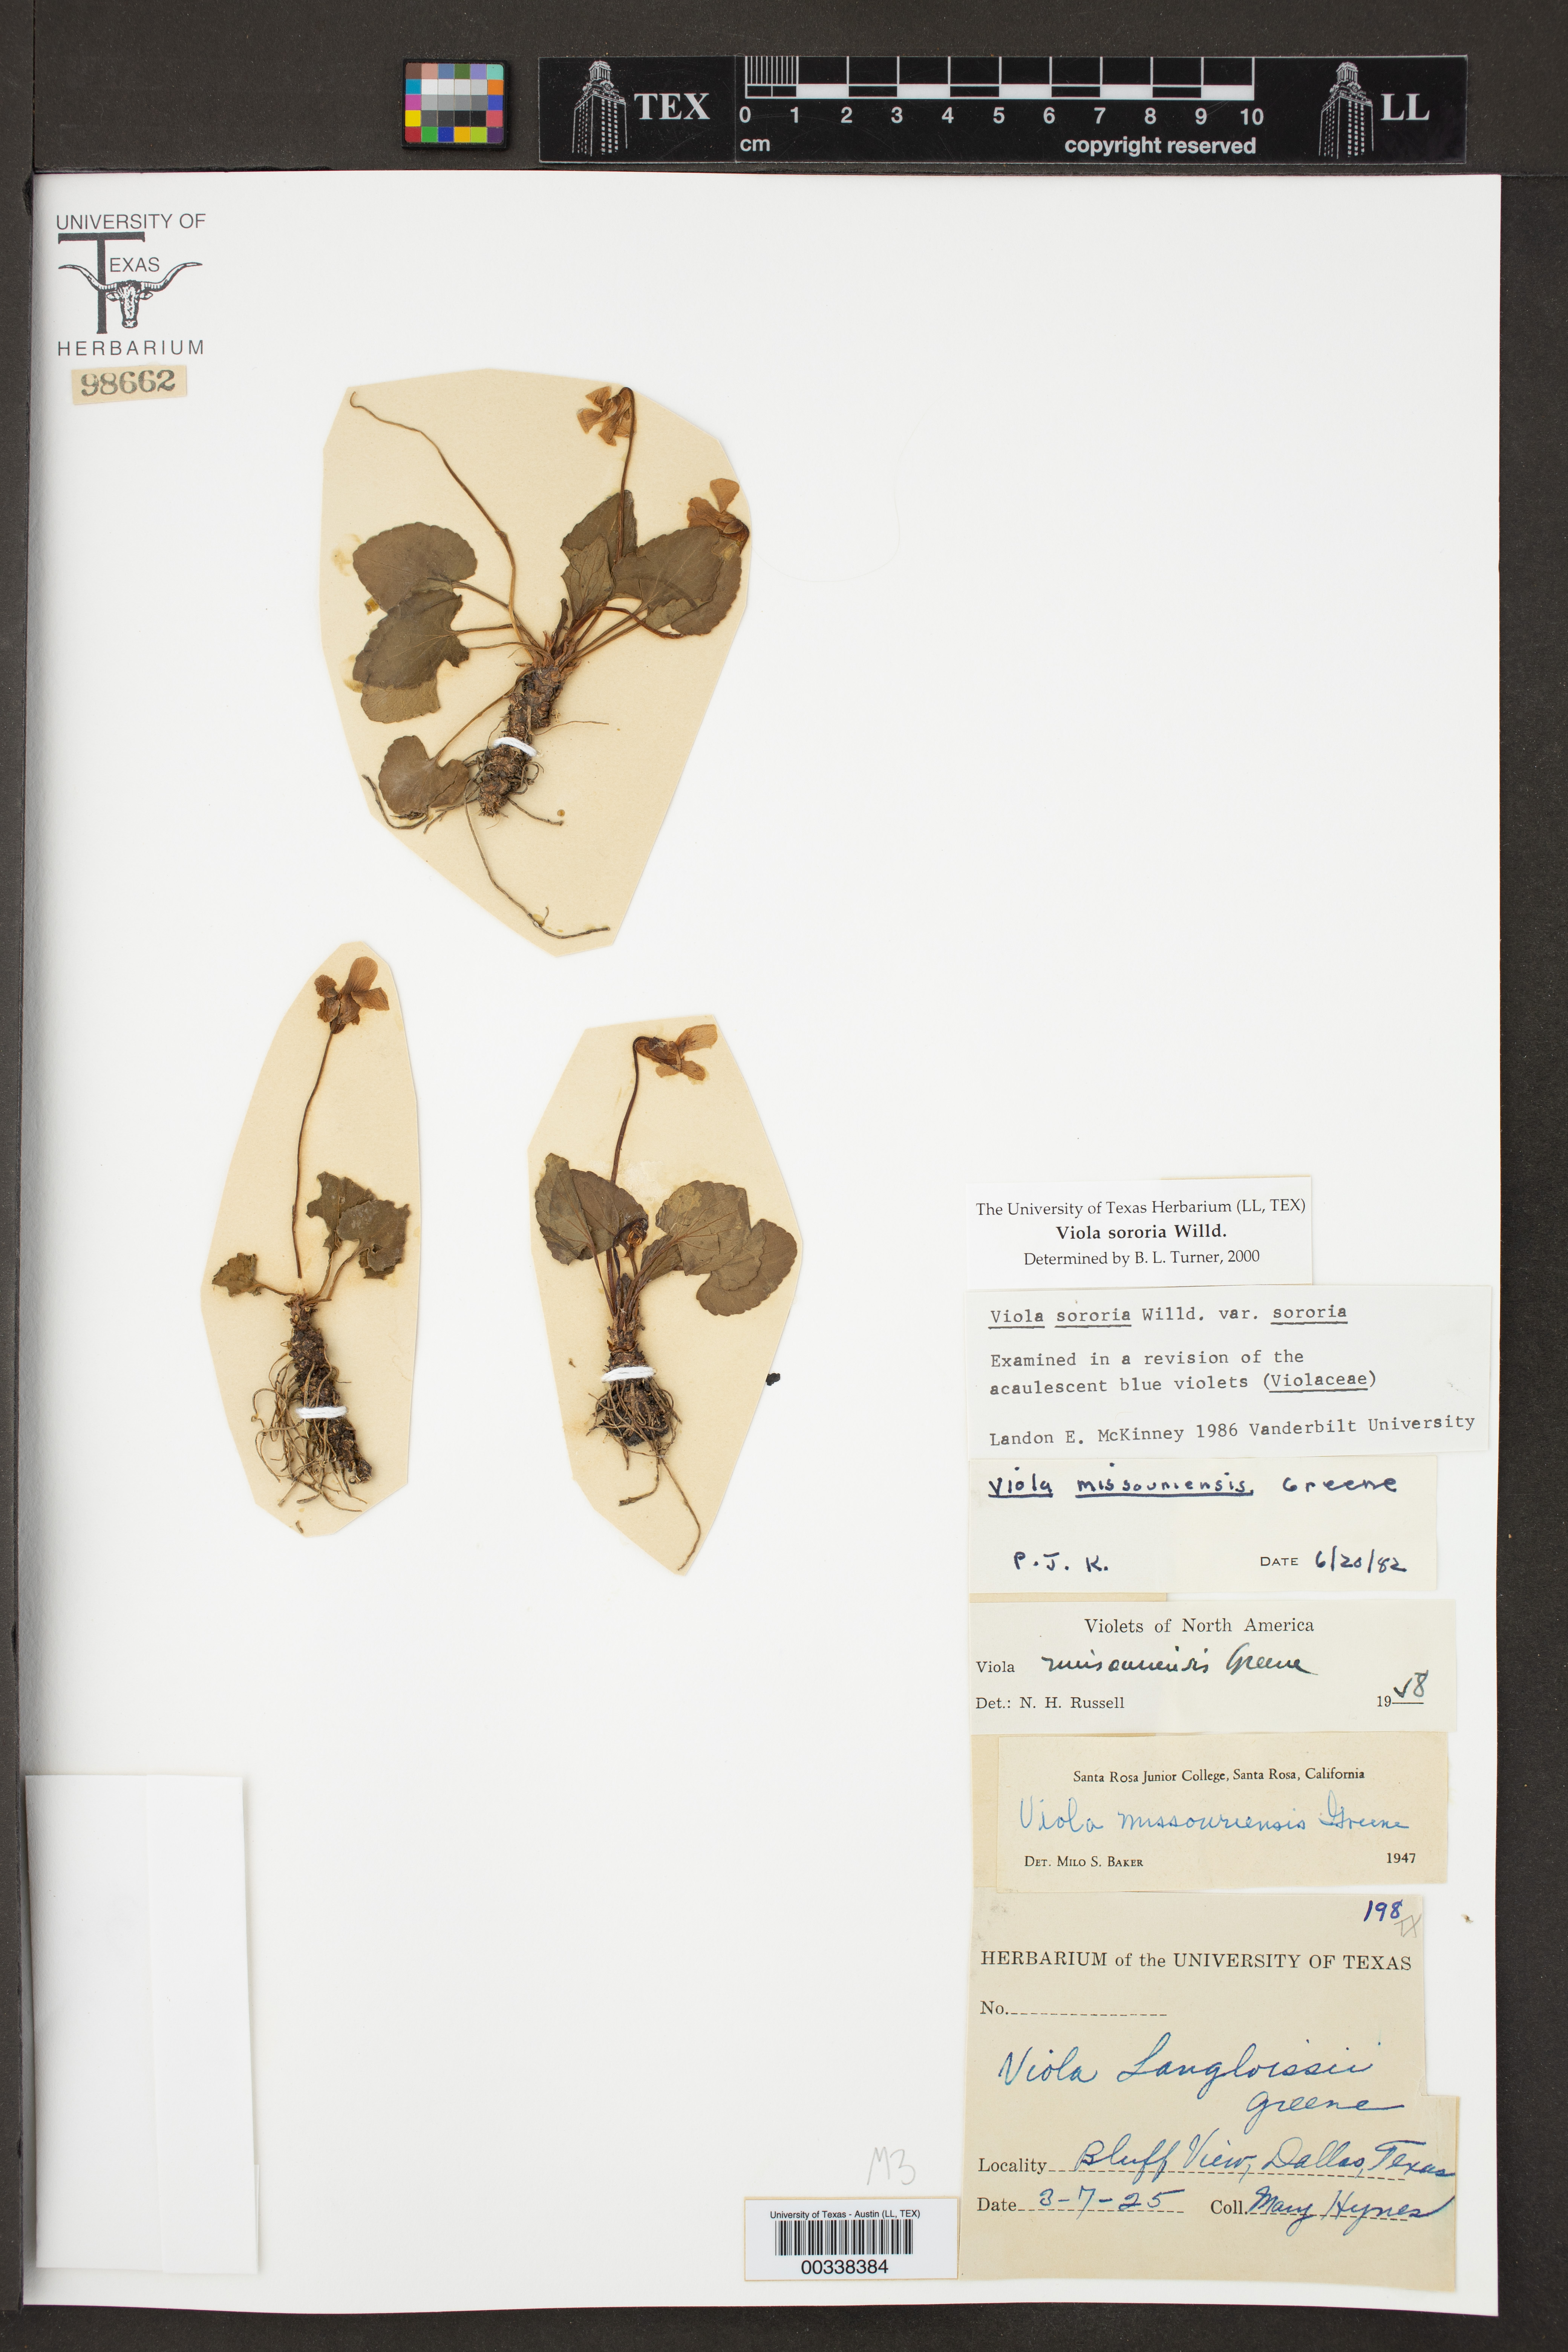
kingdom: Plantae
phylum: Tracheophyta
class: Magnoliopsida
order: Malpighiales
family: Violaceae
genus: Viola
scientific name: Viola sororia
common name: Dooryard violet
